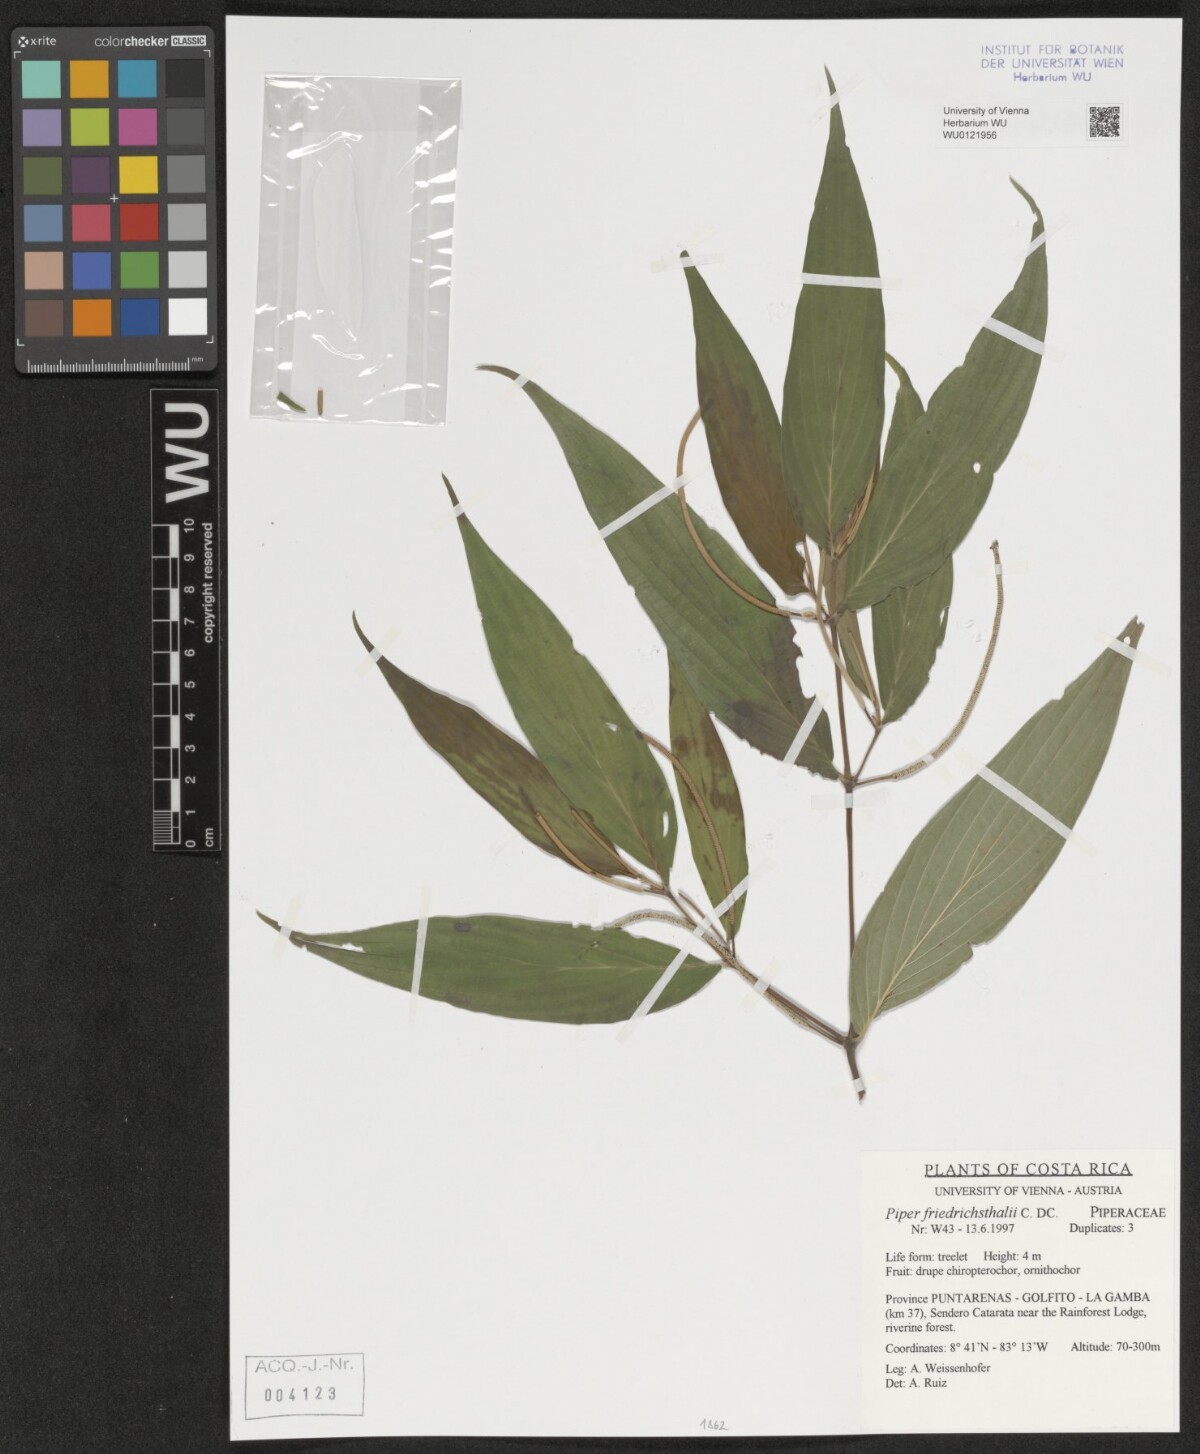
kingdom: Plantae
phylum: Tracheophyta
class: Magnoliopsida
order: Piperales
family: Piperaceae
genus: Piper
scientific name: Piper friedrichsthalii
